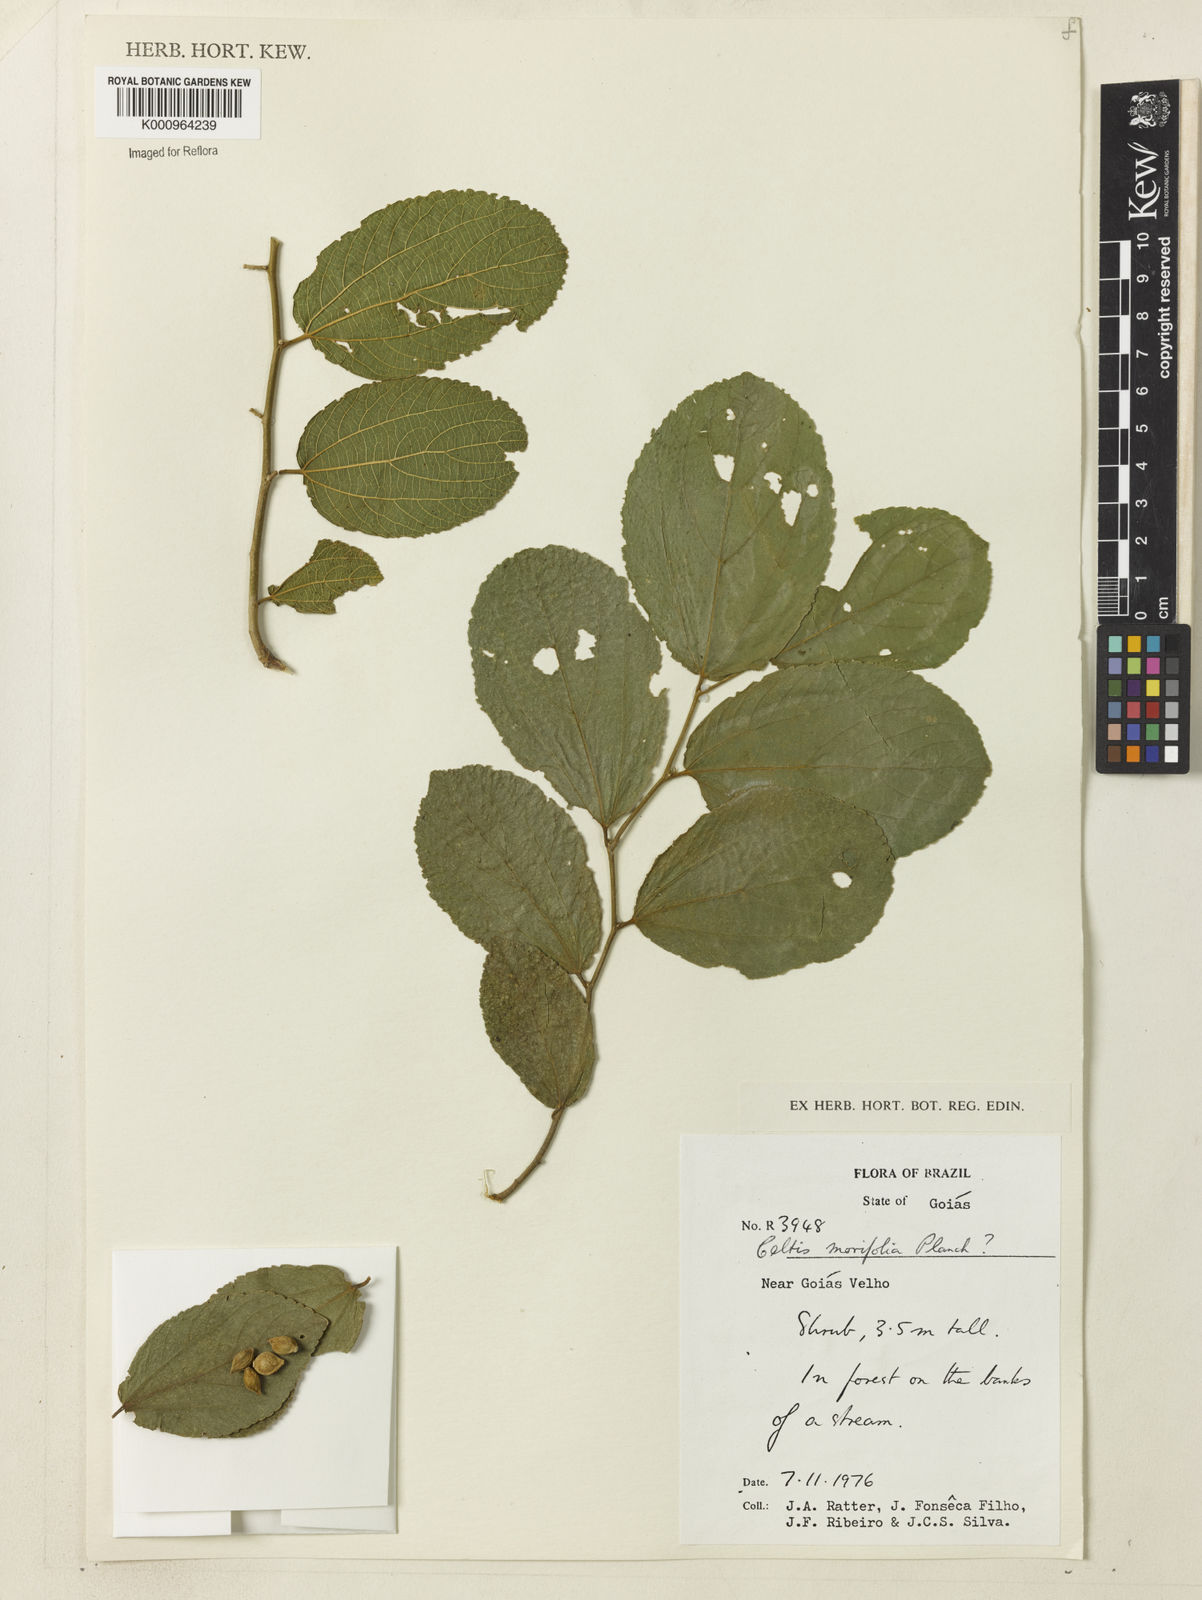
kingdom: Plantae
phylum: Tracheophyta
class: Magnoliopsida
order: Rosales
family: Cannabaceae
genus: Celtis
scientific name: Celtis iguanaea
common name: Iguana hackberry
